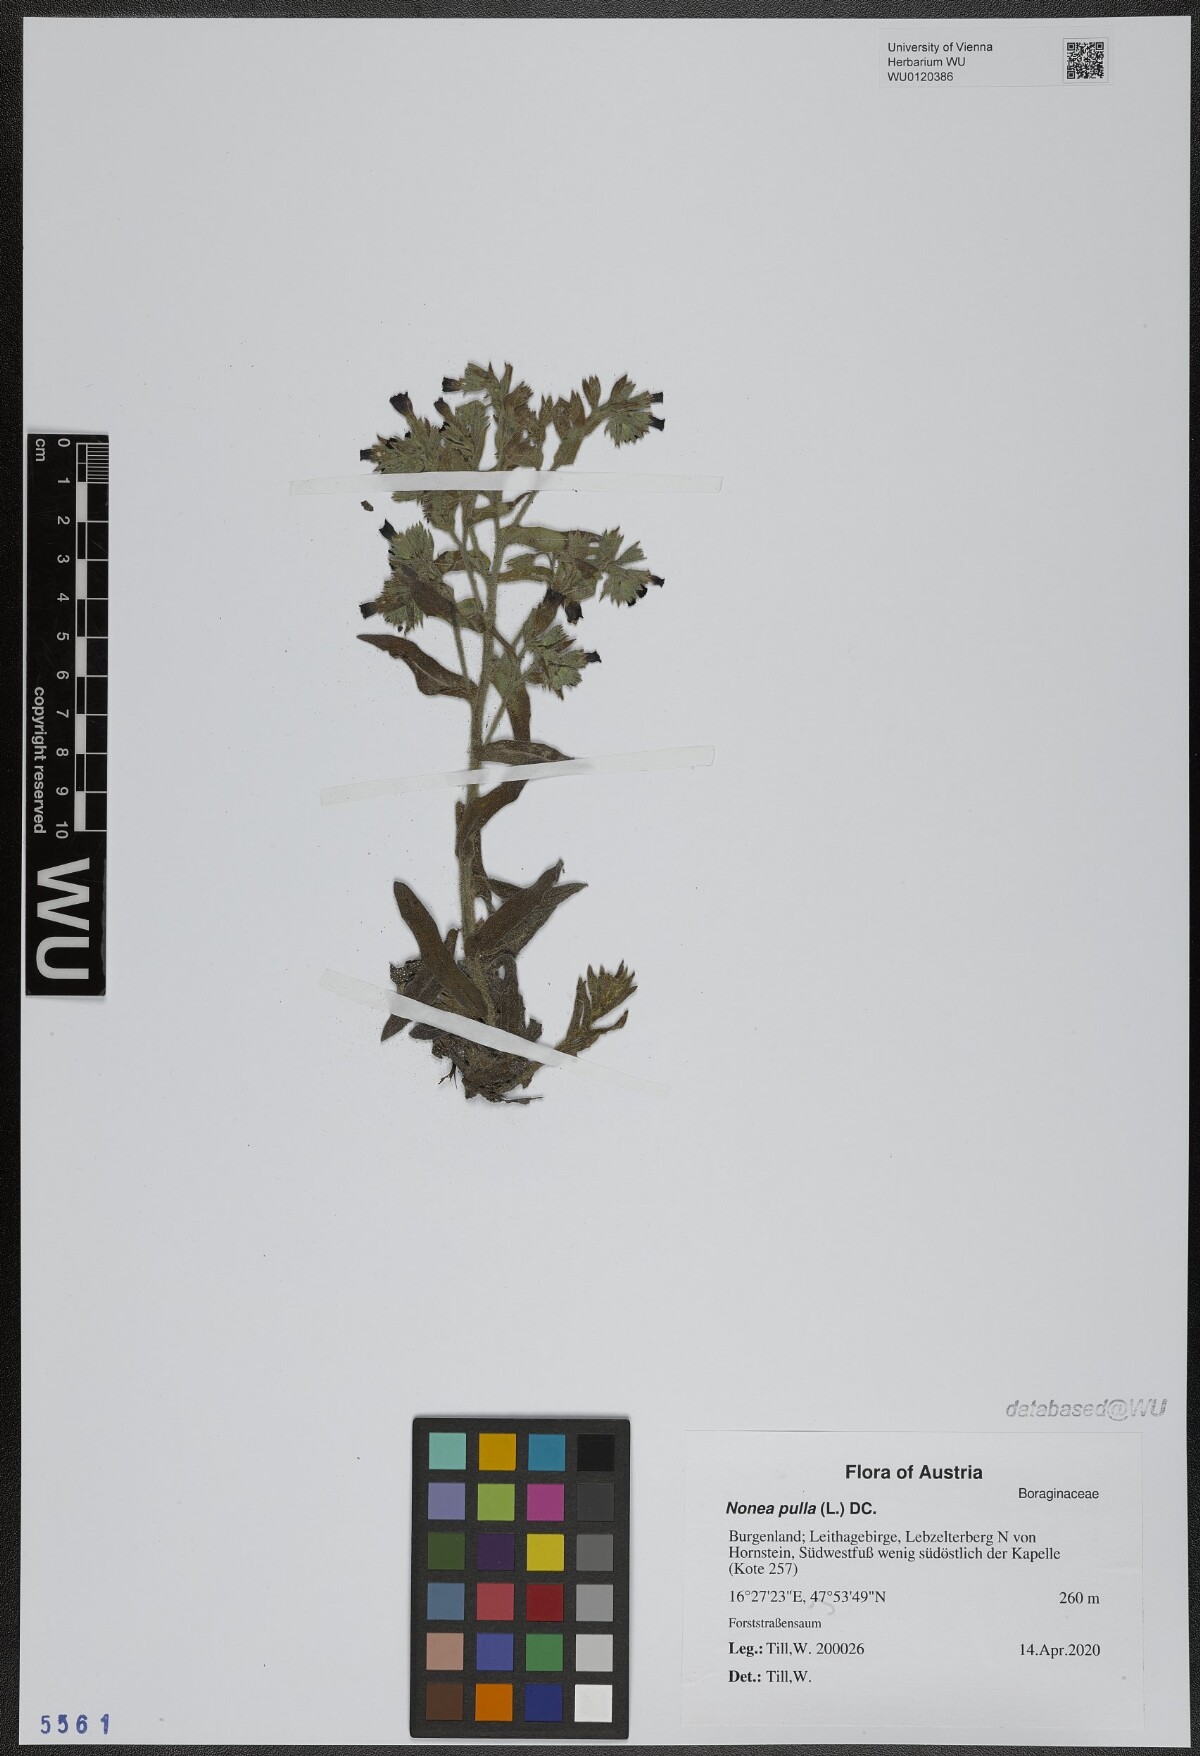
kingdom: Plantae
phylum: Tracheophyta
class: Magnoliopsida
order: Boraginales
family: Boraginaceae
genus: Nonea
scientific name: Nonea pulla
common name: Brown nonea
